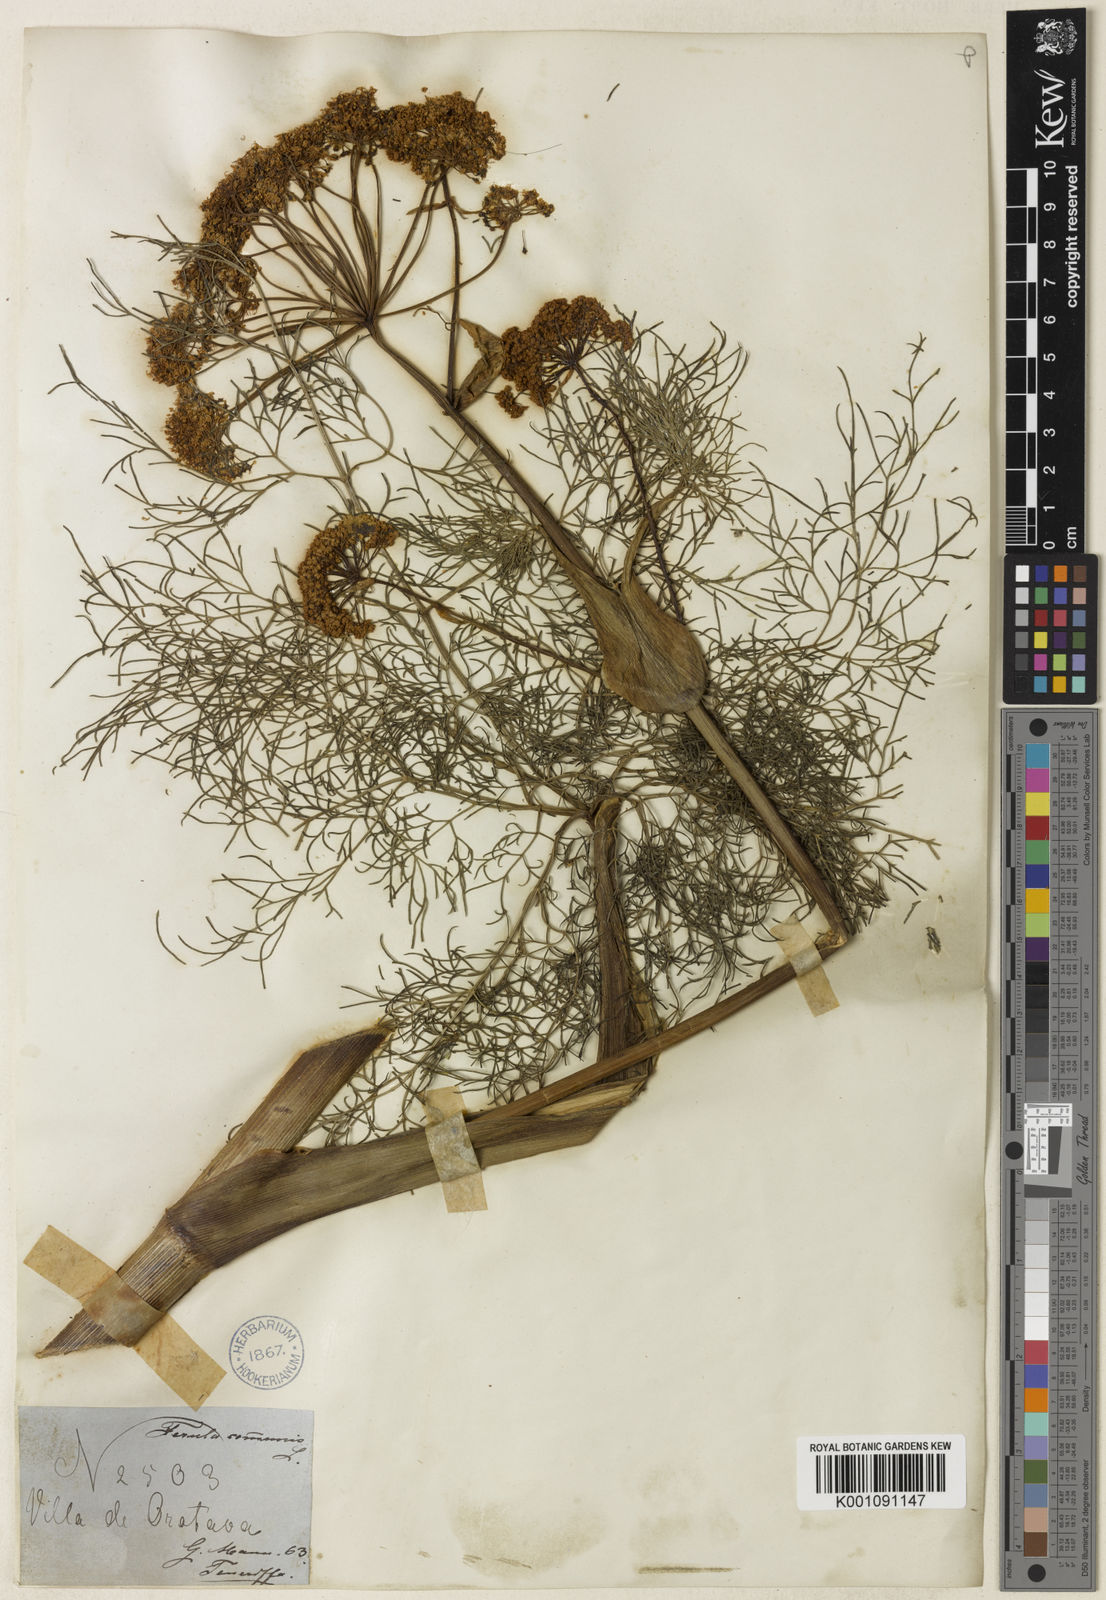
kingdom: Plantae
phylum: Tracheophyta
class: Magnoliopsida
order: Apiales
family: Apiaceae
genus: Ferula
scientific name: Ferula communis
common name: Giant fennel
